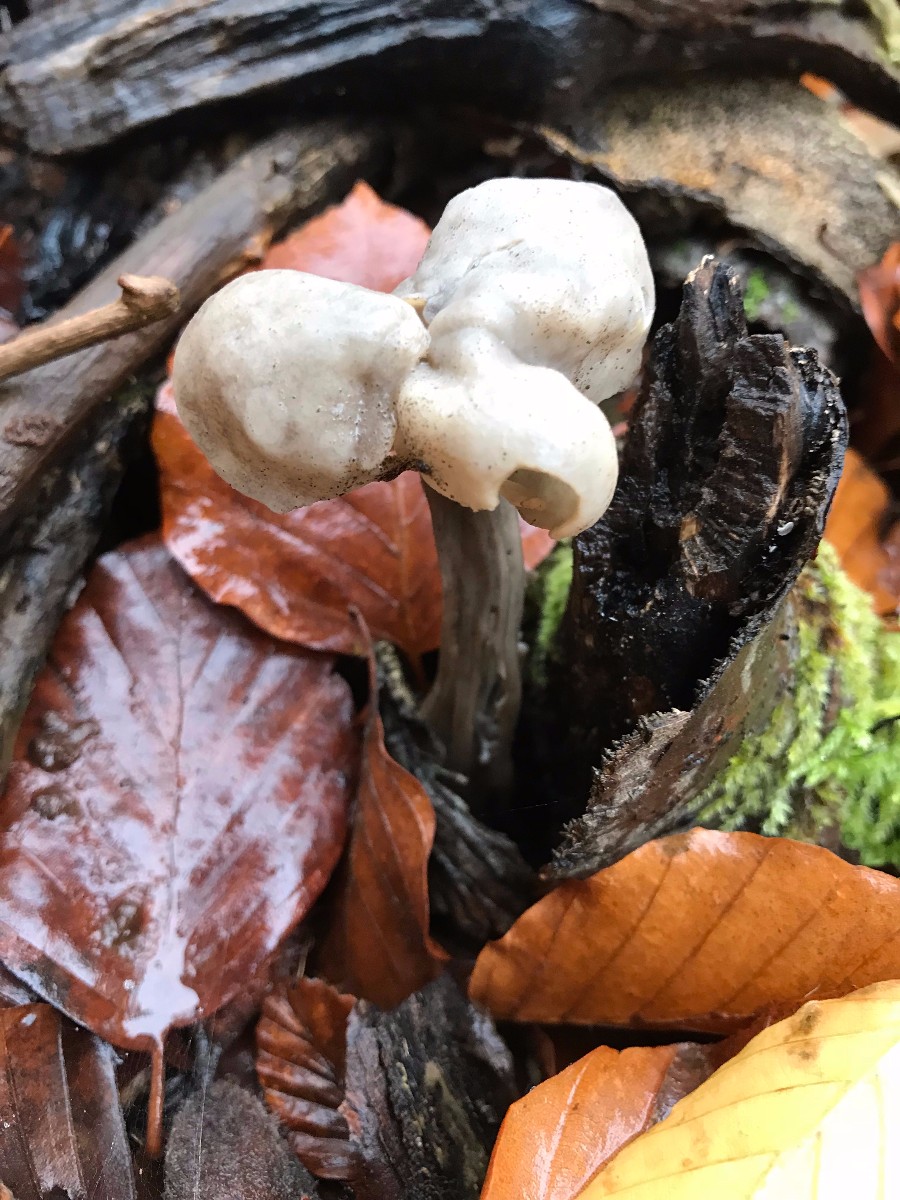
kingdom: Fungi
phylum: Ascomycota
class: Pezizomycetes
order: Pezizales
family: Helvellaceae
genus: Helvella
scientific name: Helvella lacunosa
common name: grubet foldhat
